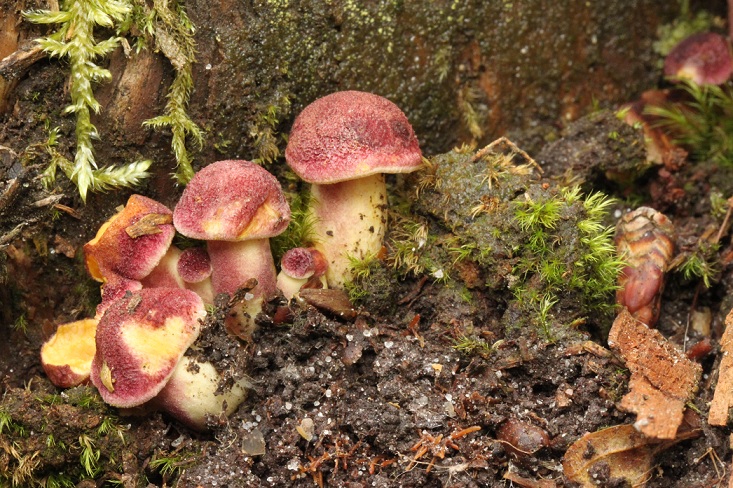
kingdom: Fungi
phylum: Basidiomycota
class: Agaricomycetes
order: Agaricales
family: Tricholomataceae
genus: Tricholomopsis
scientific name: Tricholomopsis rutilans
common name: purpur-væbnerhat
